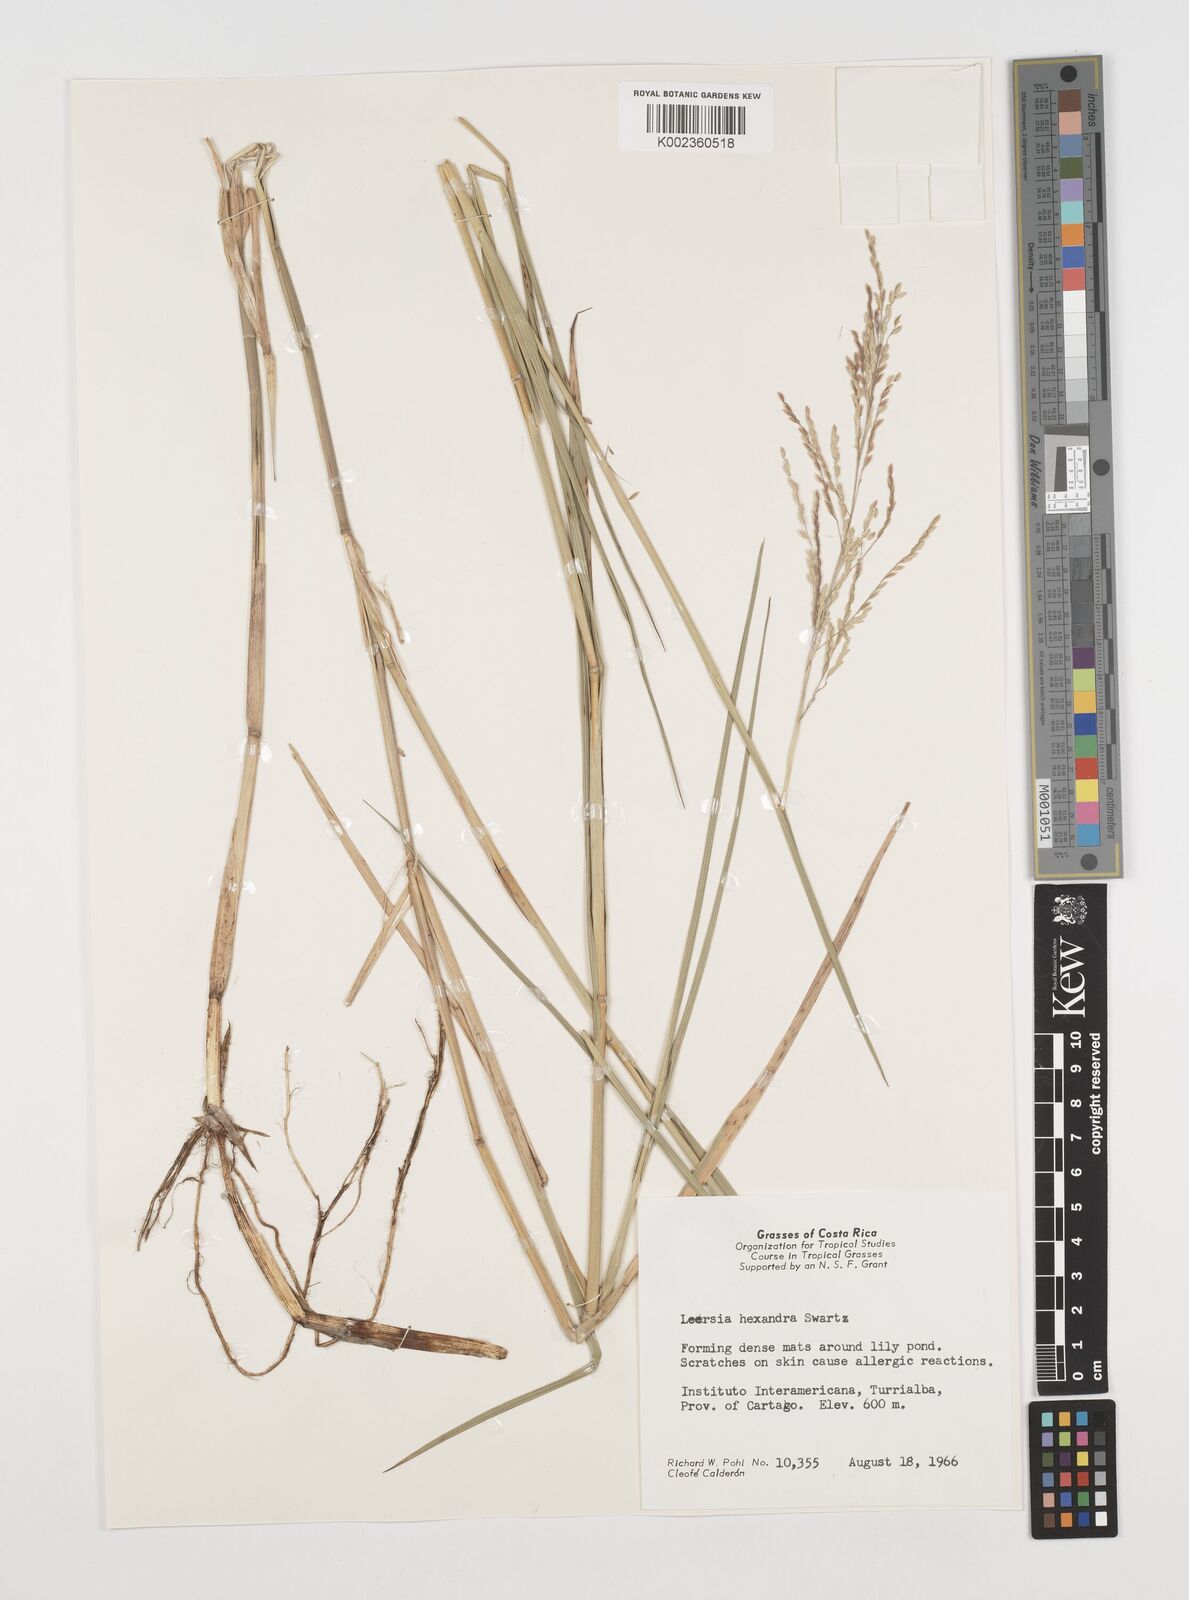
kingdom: Plantae
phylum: Tracheophyta
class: Liliopsida
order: Poales
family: Poaceae
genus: Leersia
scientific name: Leersia hexandra
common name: Southern cut grass
